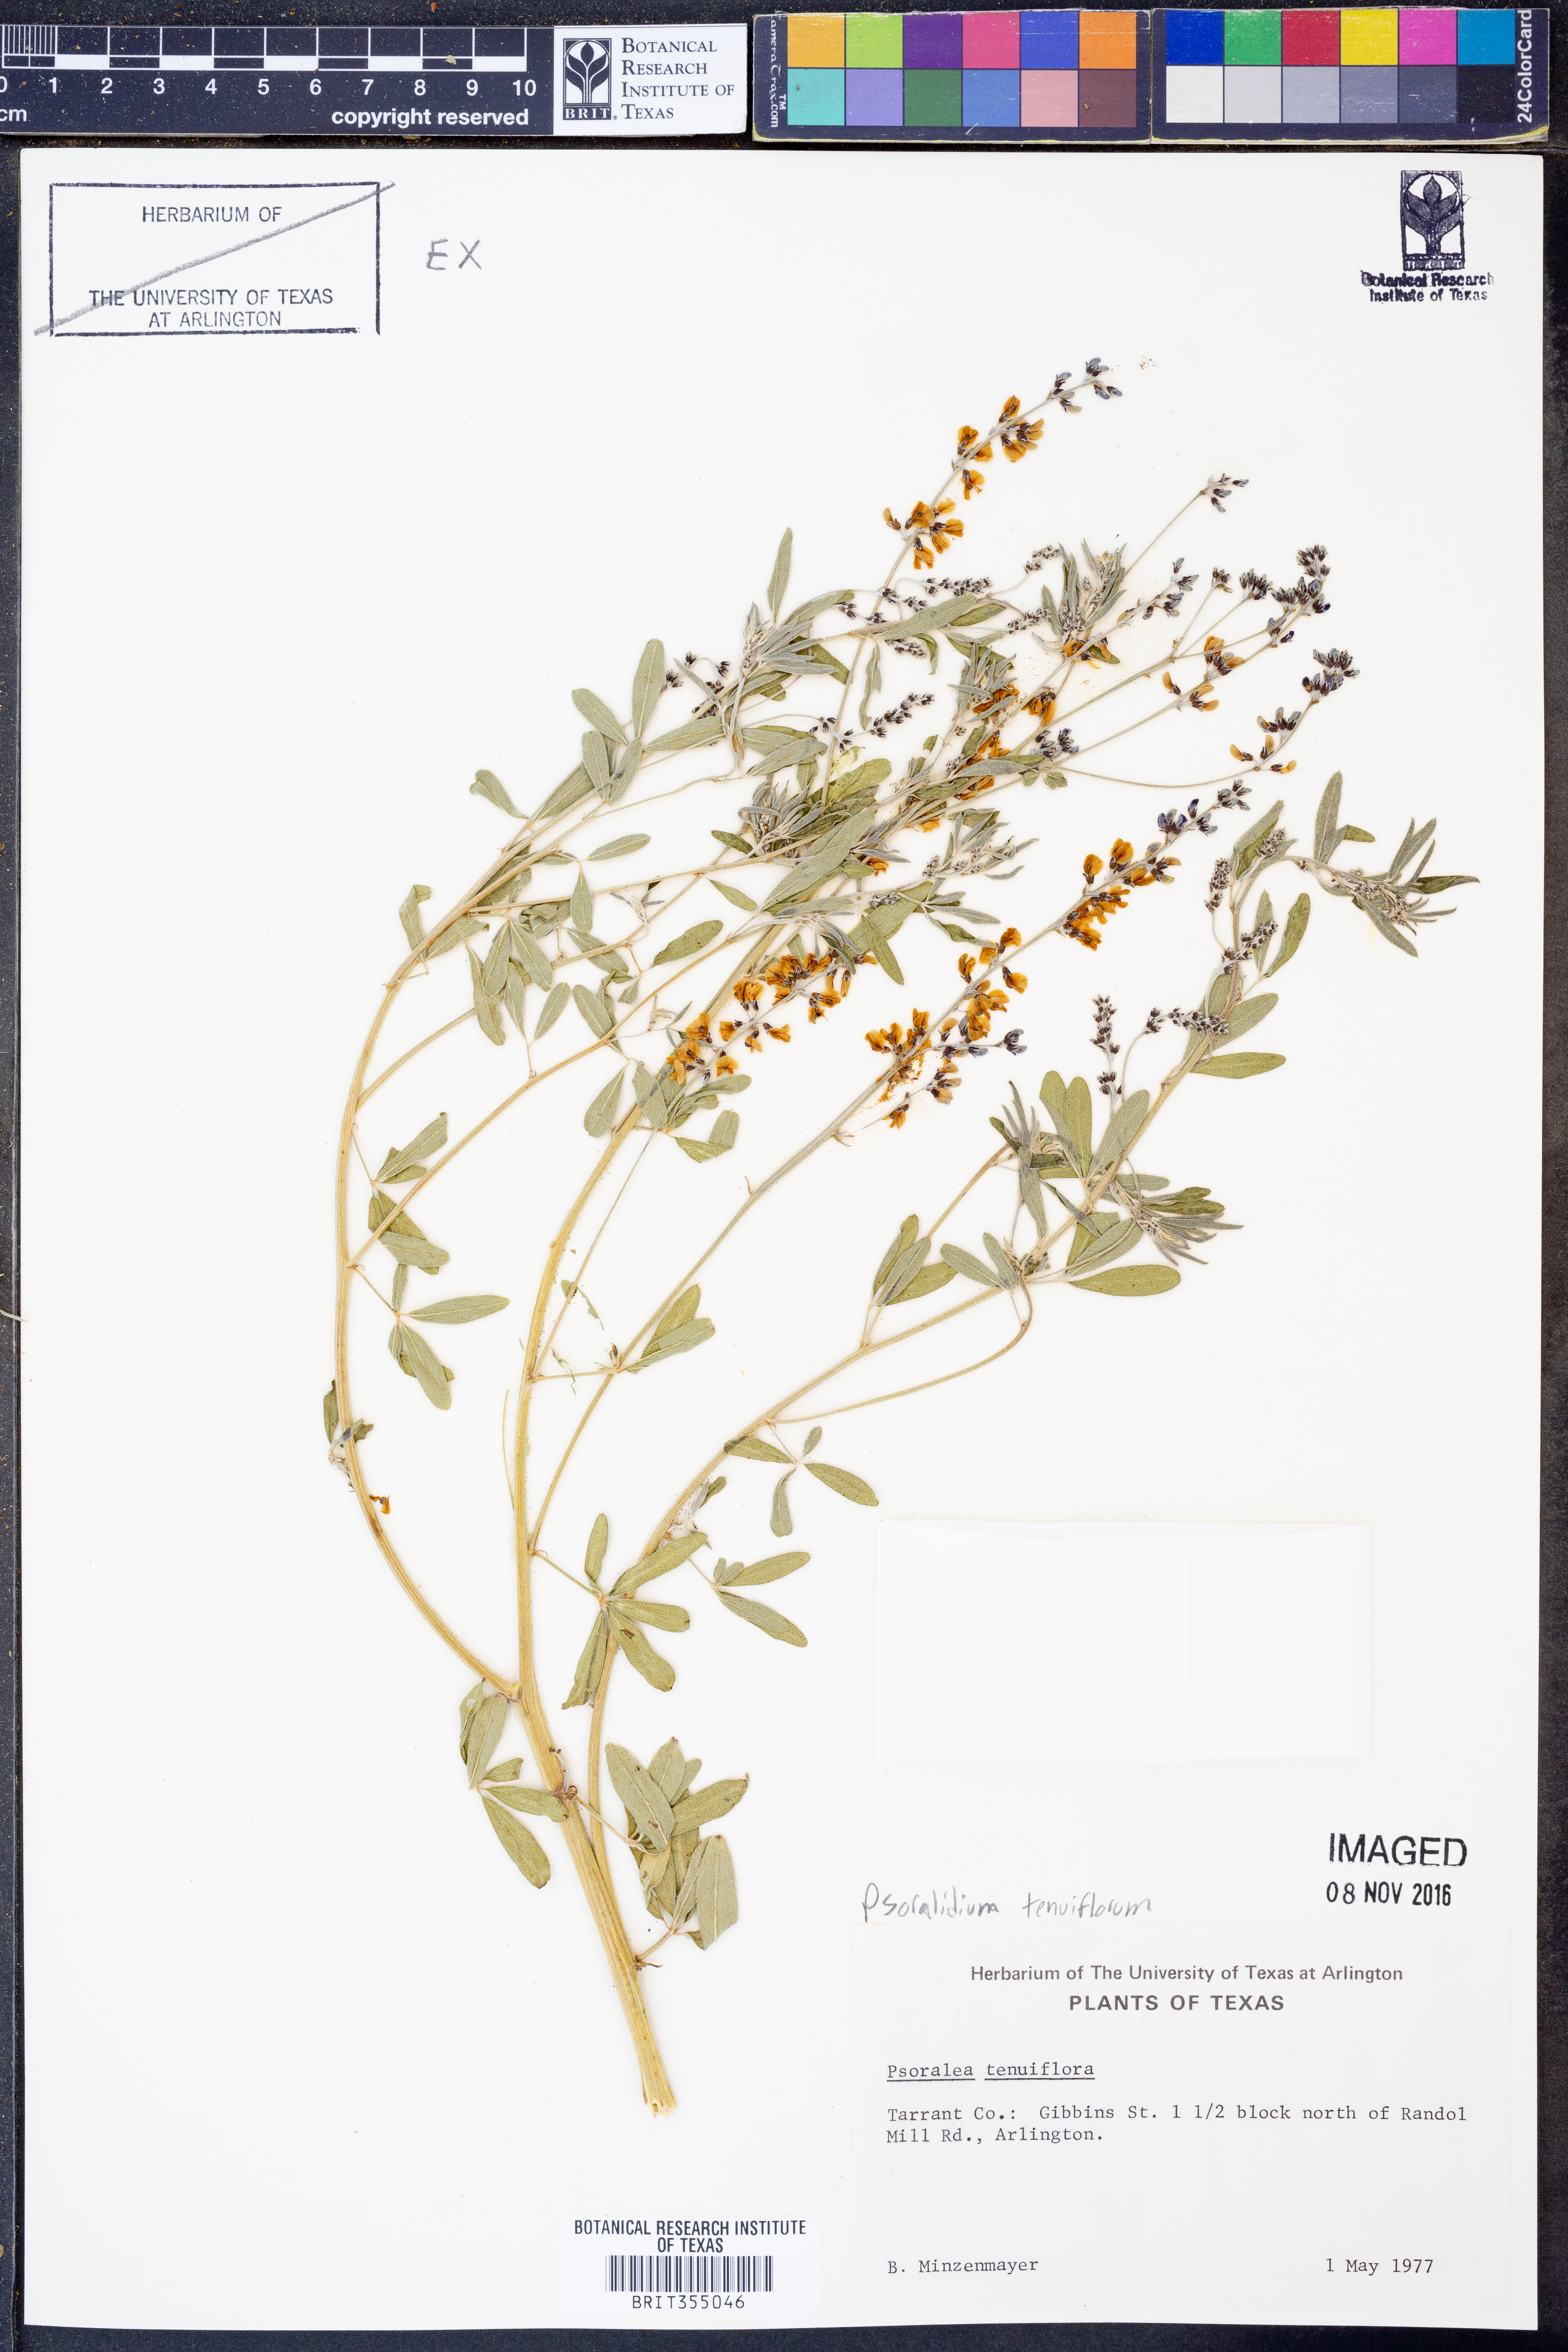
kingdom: Plantae
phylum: Tracheophyta
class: Magnoliopsida
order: Fabales
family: Fabaceae
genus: Pediomelum
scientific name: Pediomelum tenuiflorum
